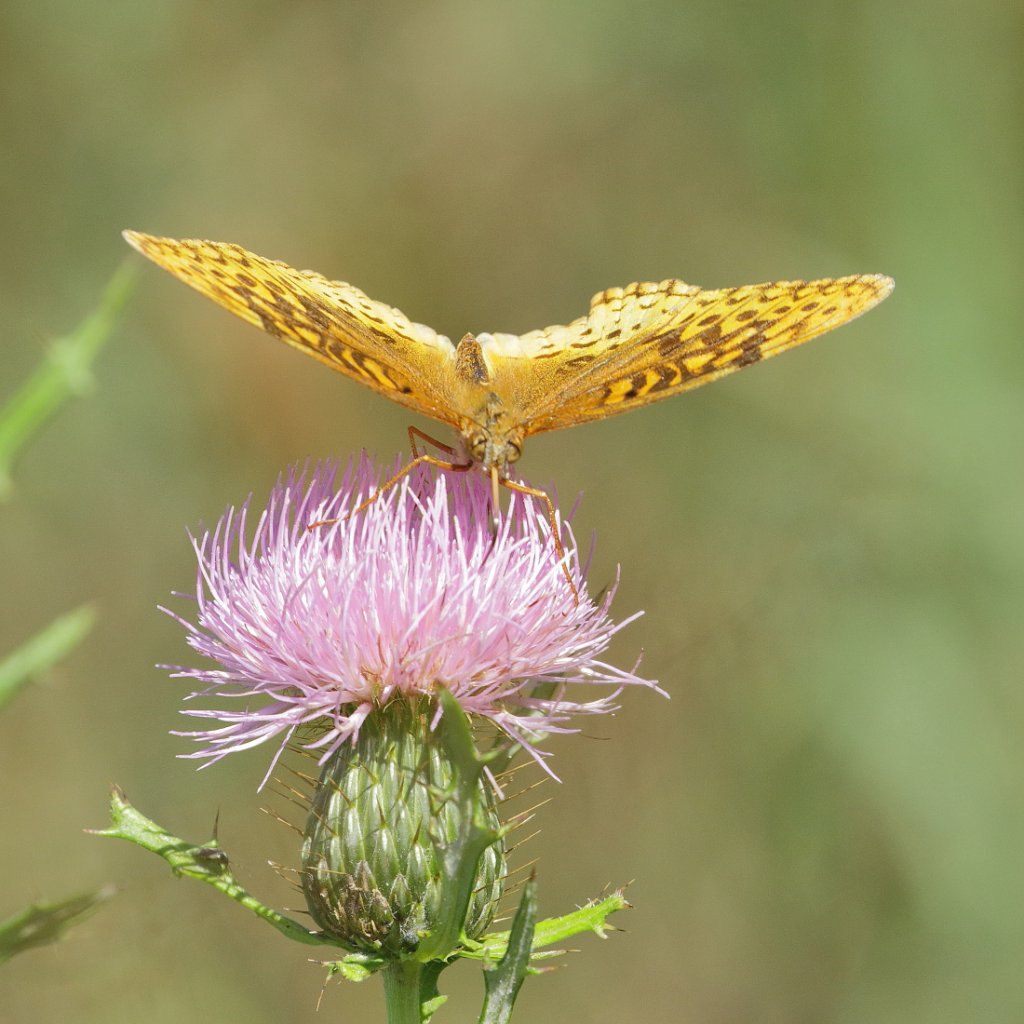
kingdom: Animalia
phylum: Arthropoda
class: Insecta
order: Lepidoptera
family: Nymphalidae
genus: Speyeria
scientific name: Speyeria cybele
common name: Great Spangled Fritillary
